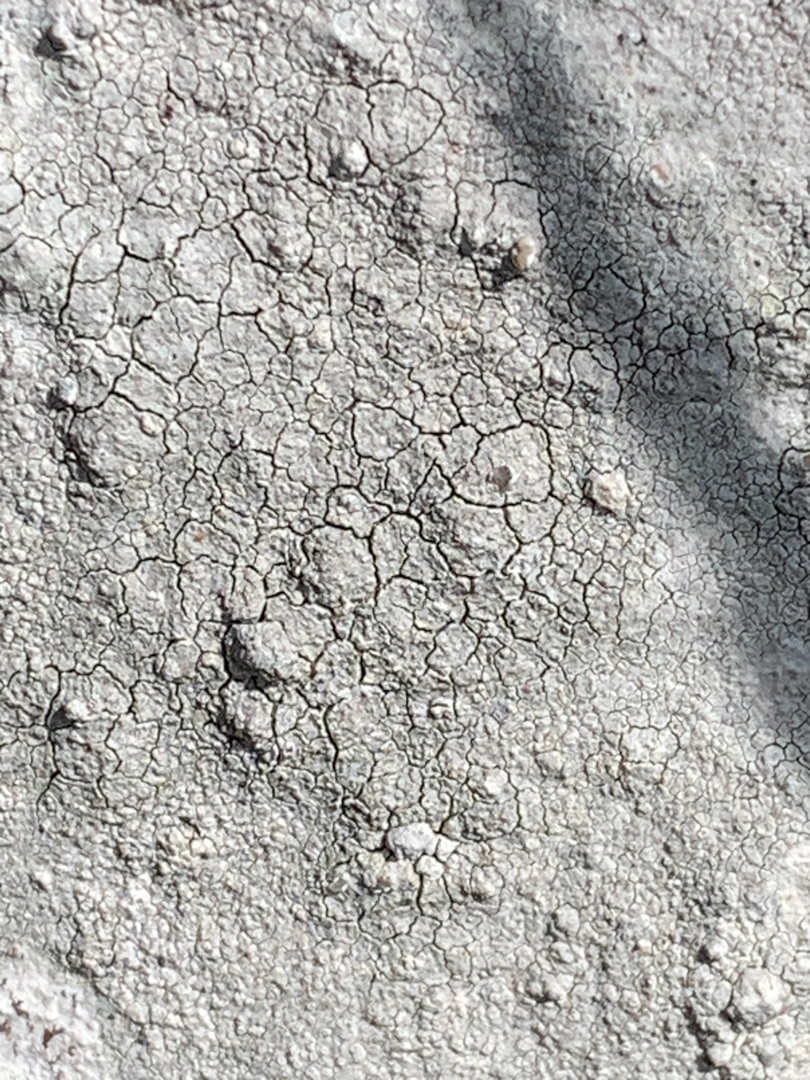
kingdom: Fungi
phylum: Ascomycota
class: Lecanoromycetes
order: Lecanorales
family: Lecanoraceae
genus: Glaucomaria
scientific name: Glaucomaria rupicola
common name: Stengærde-kantskivelav
